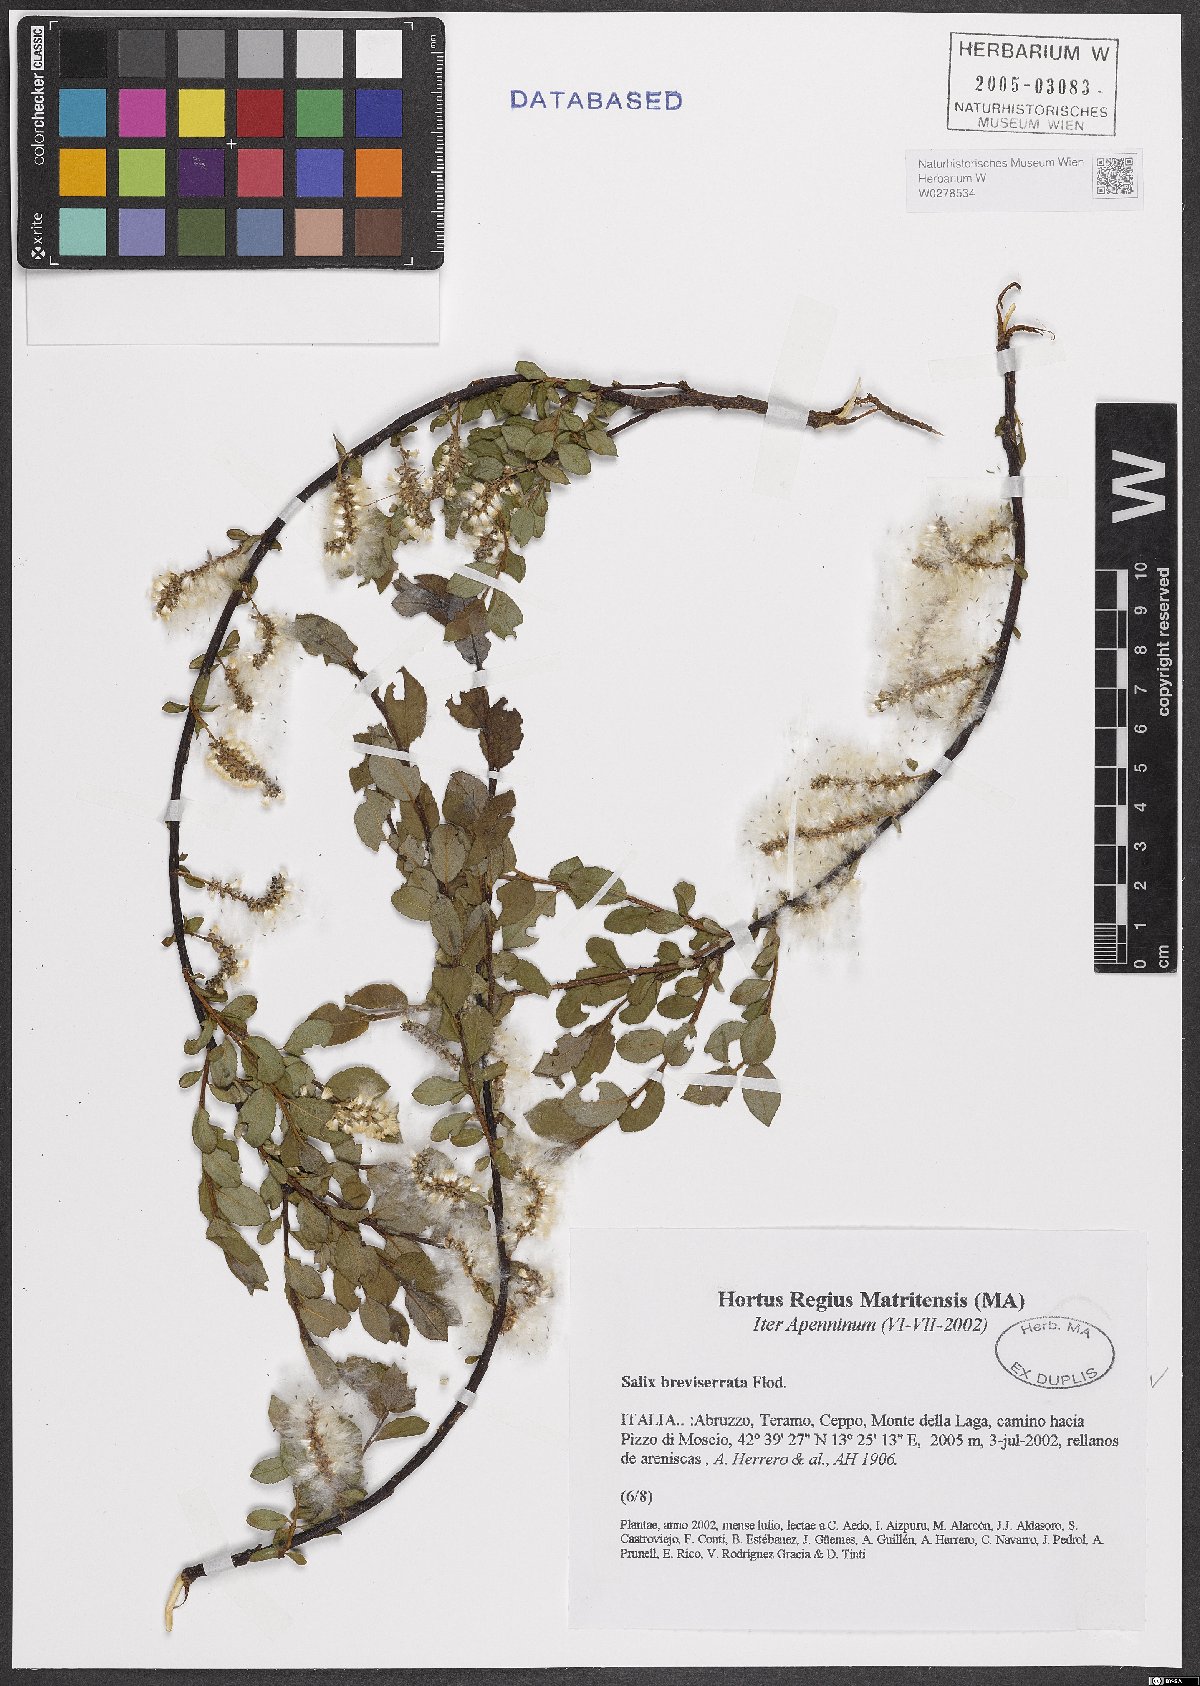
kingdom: Plantae
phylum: Tracheophyta
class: Magnoliopsida
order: Malpighiales
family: Salicaceae
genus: Salix
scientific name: Salix breviserrata
